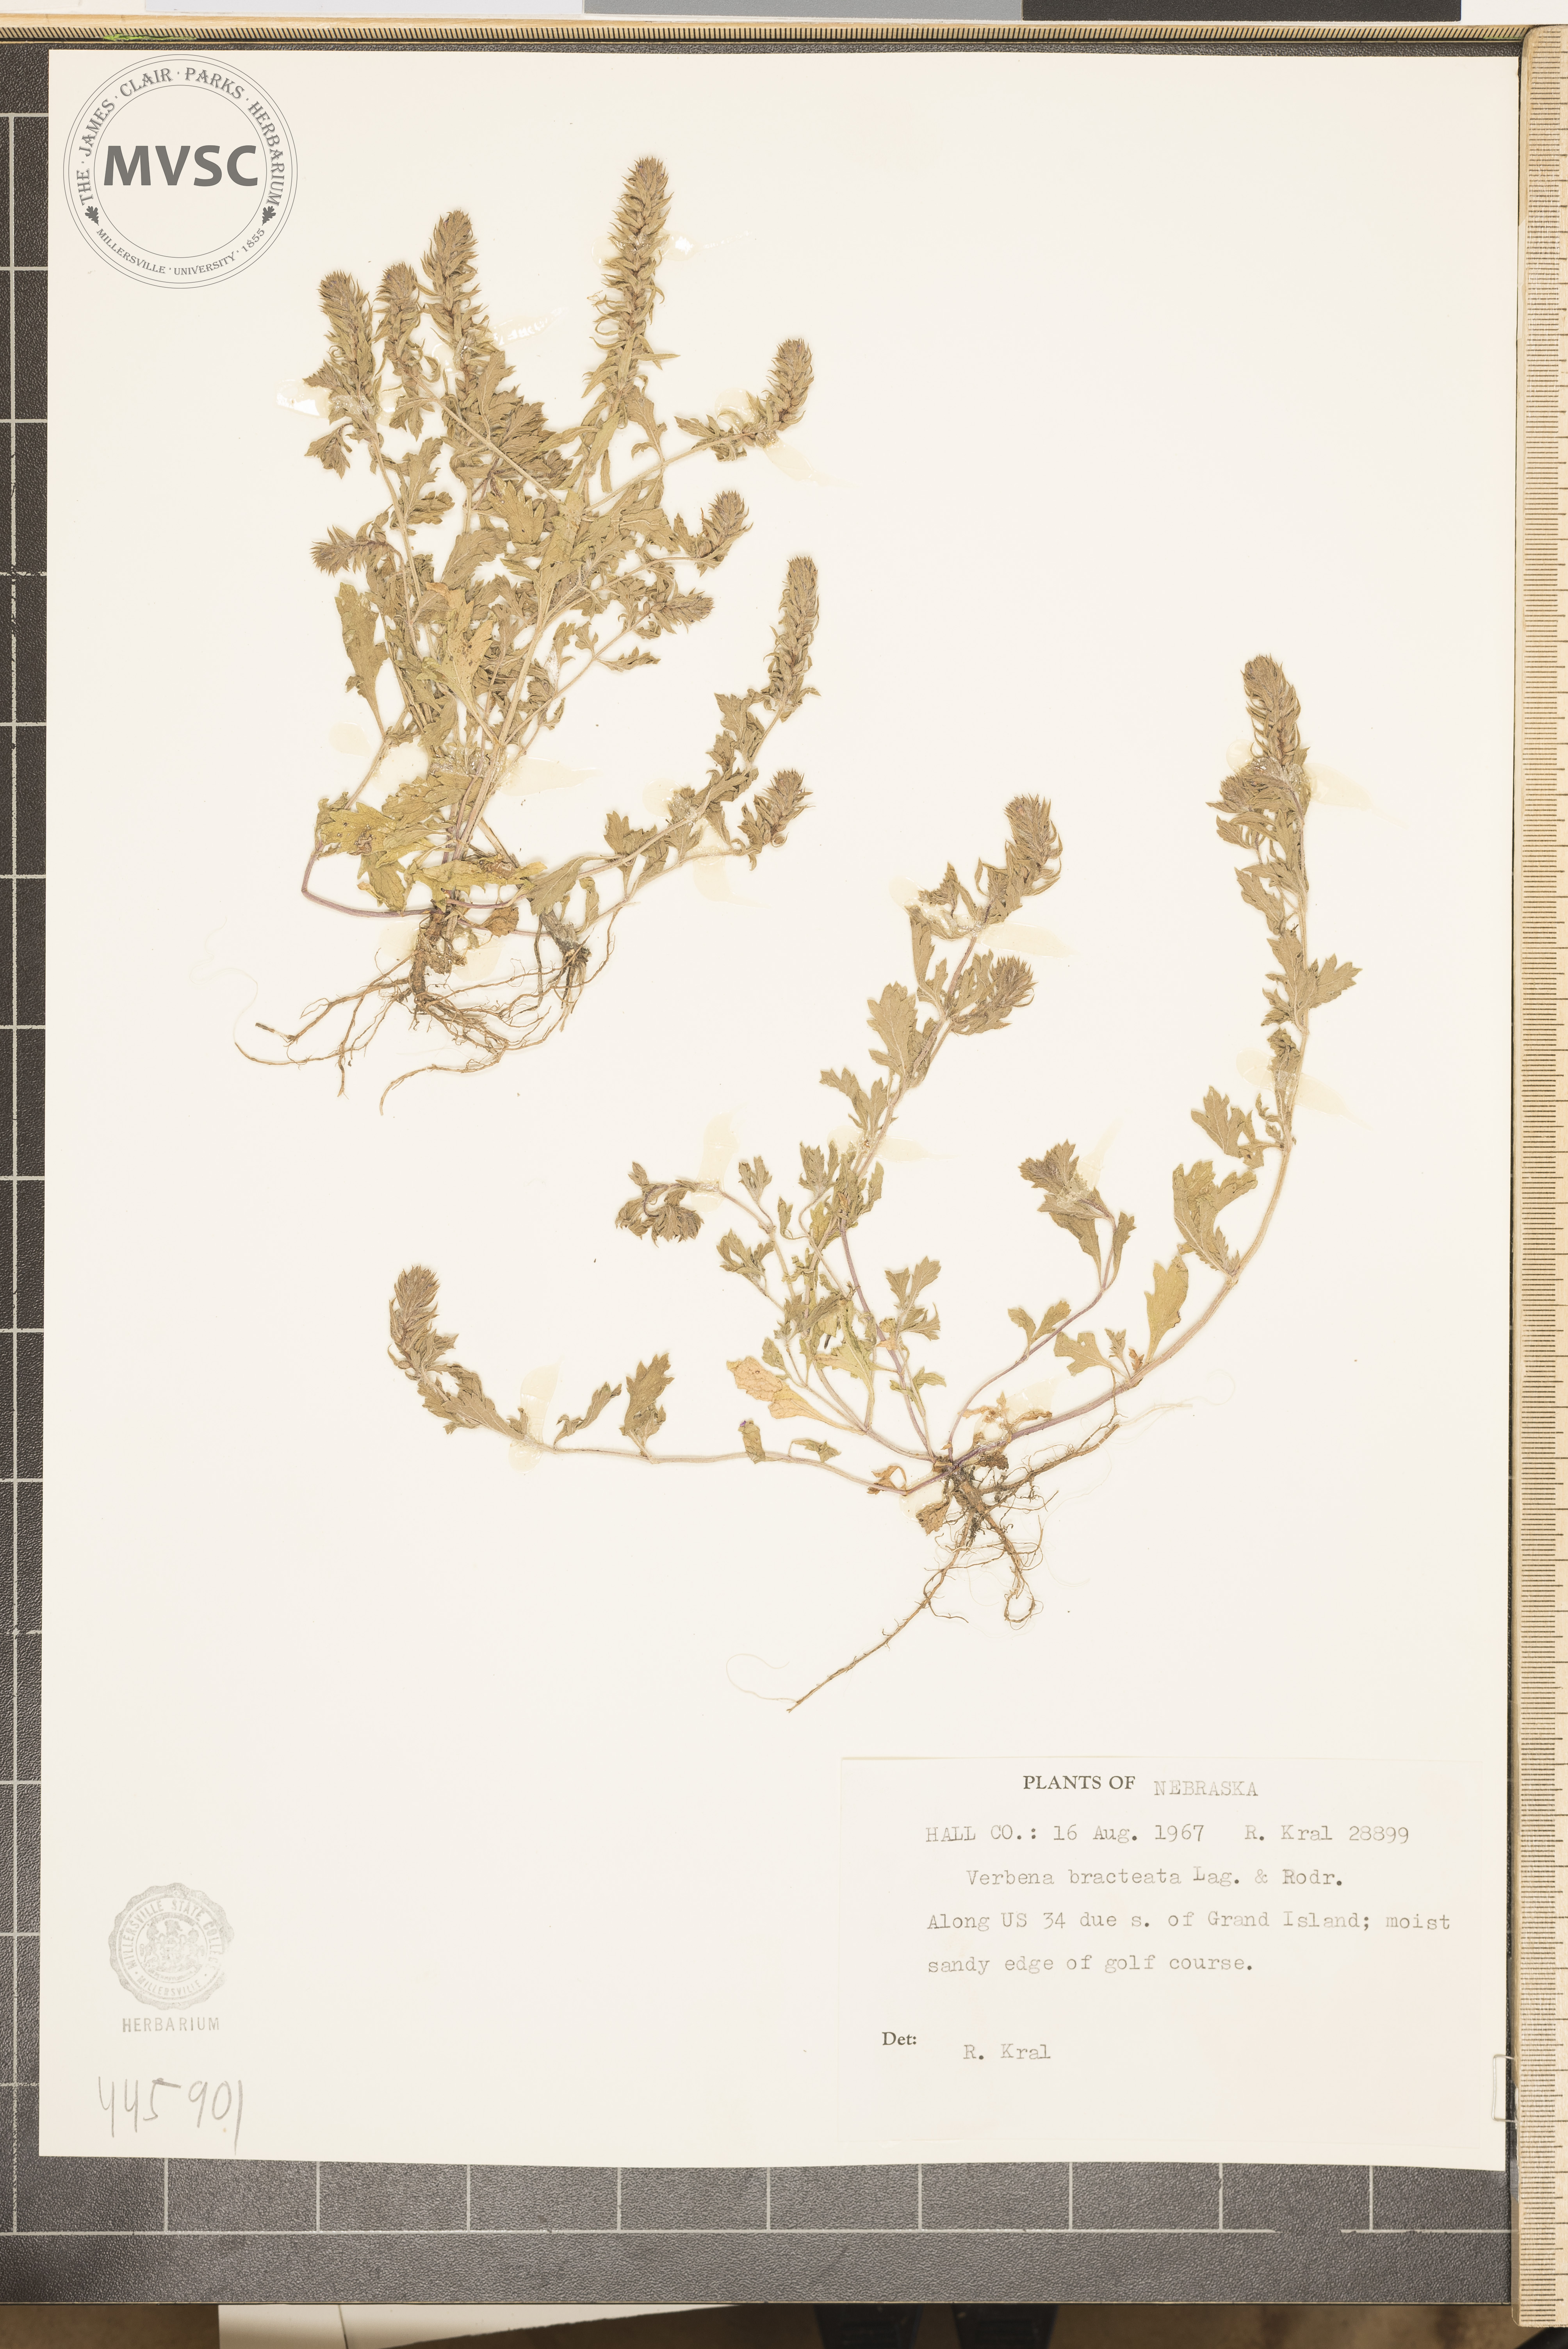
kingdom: Plantae
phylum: Tracheophyta
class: Magnoliopsida
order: Lamiales
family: Verbenaceae
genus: Verbena
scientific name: Verbena bracteata
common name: Bracted vervain
